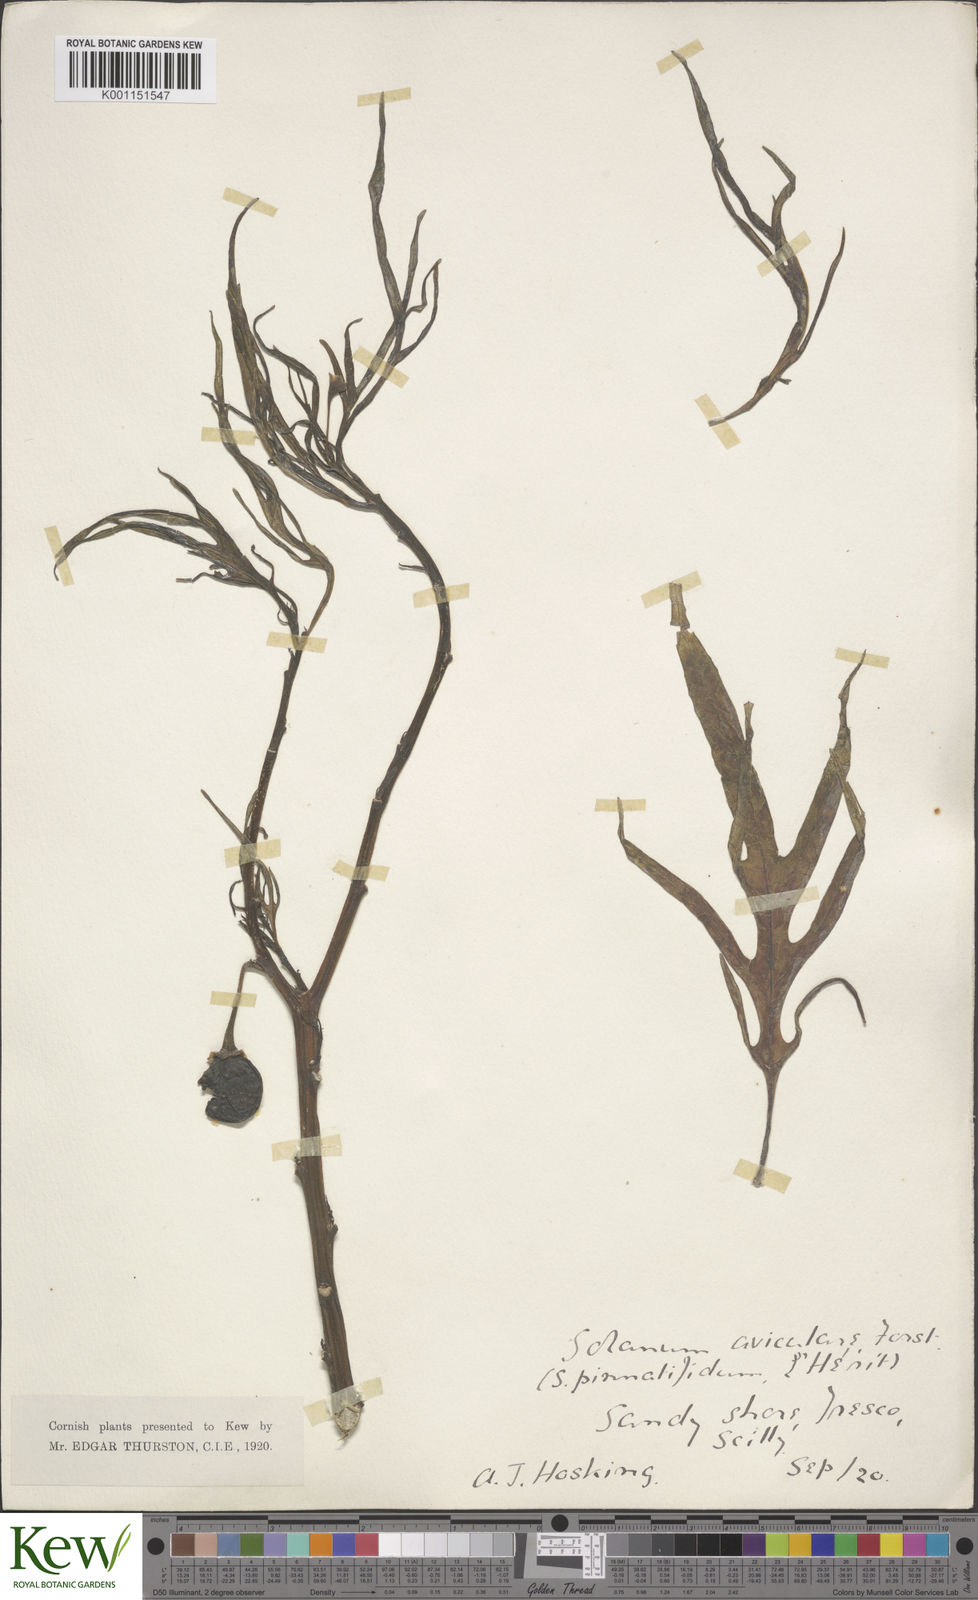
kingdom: Plantae
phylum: Tracheophyta
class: Magnoliopsida
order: Solanales
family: Solanaceae
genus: Solanum
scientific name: Solanum aviculare
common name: New zealand nightshade
